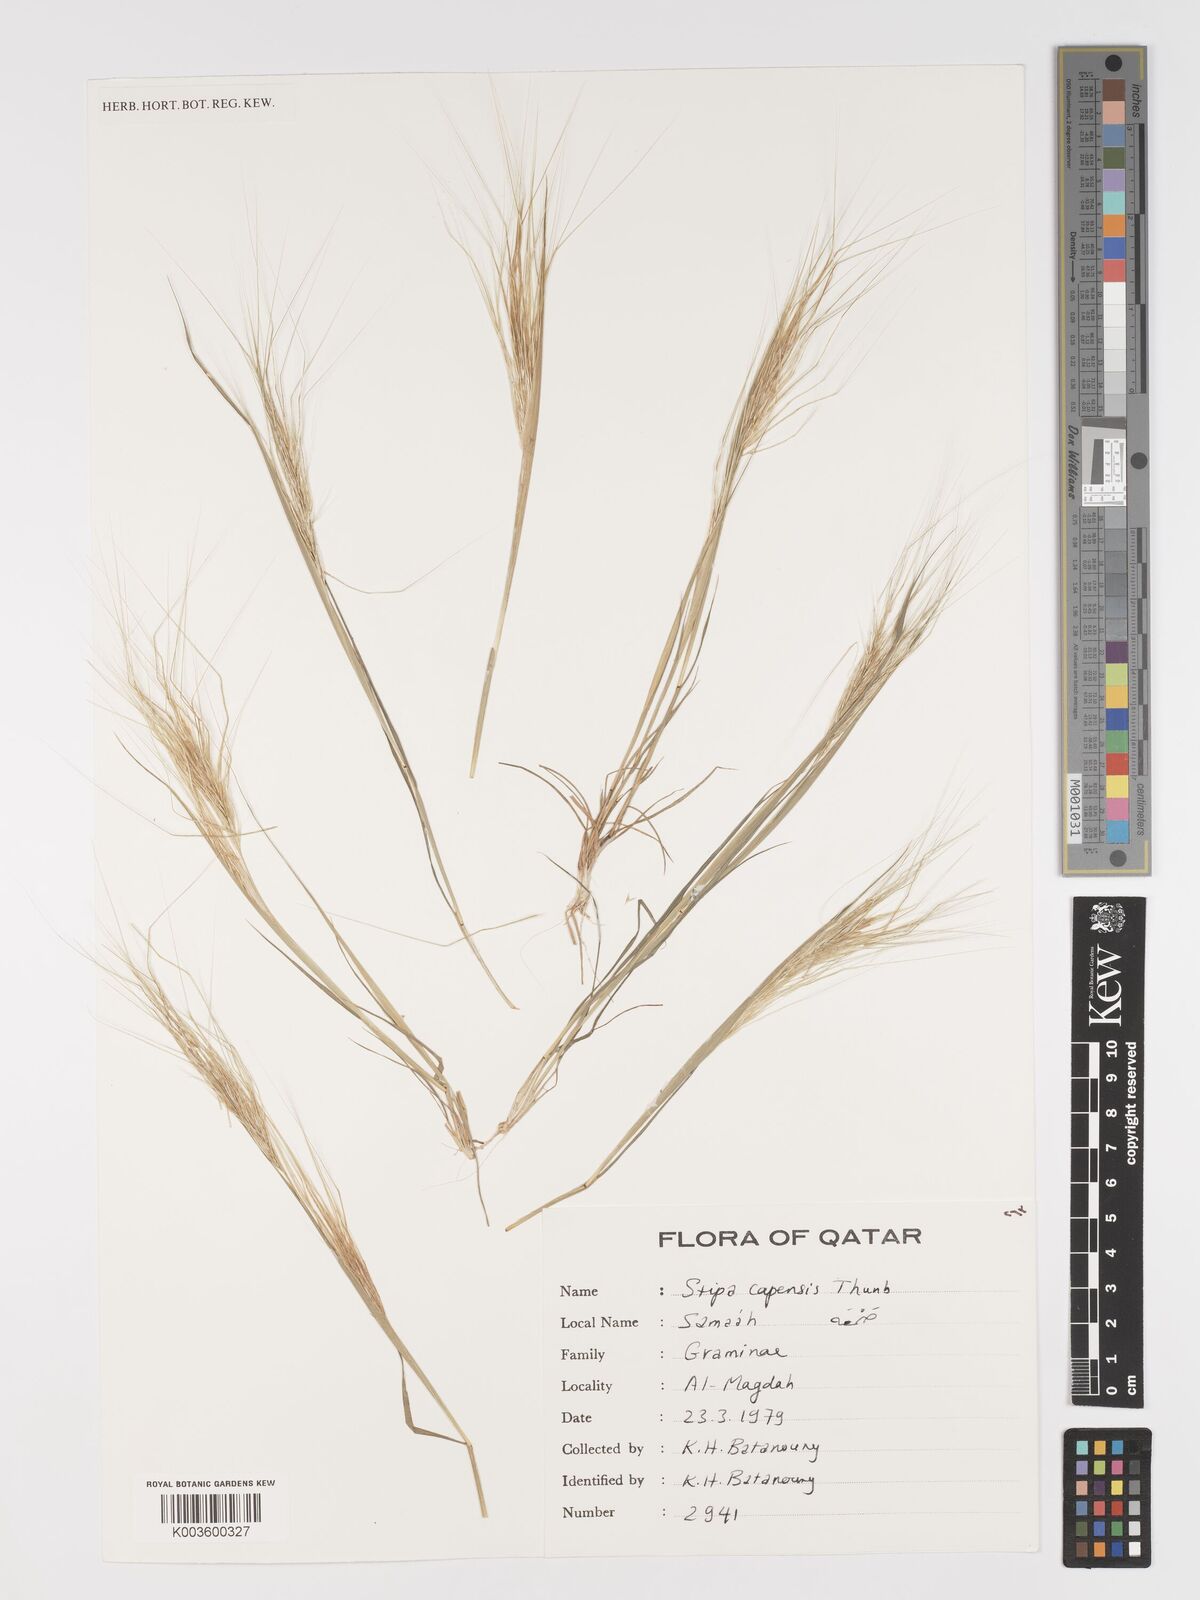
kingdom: Plantae
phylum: Tracheophyta
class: Liliopsida
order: Poales
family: Poaceae
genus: Stipellula
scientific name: Stipellula capensis
